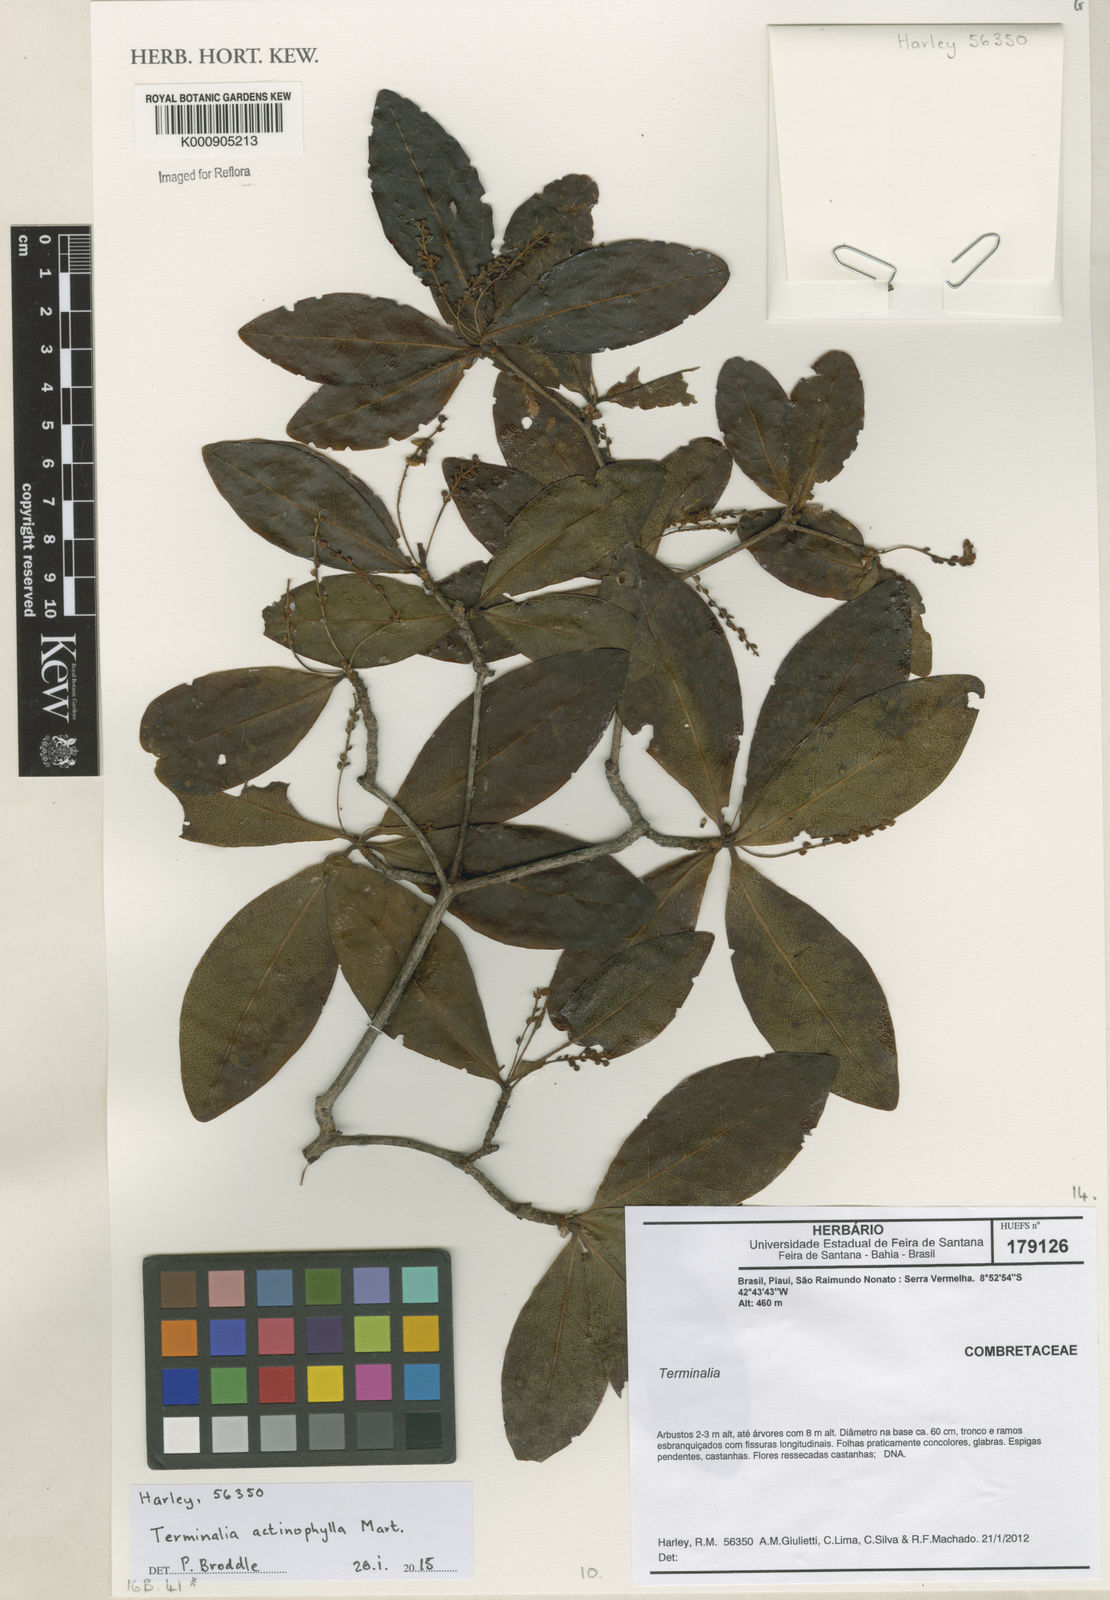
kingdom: Plantae
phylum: Tracheophyta
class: Magnoliopsida
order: Myrtales
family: Combretaceae
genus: Terminalia
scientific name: Terminalia actinophylla
